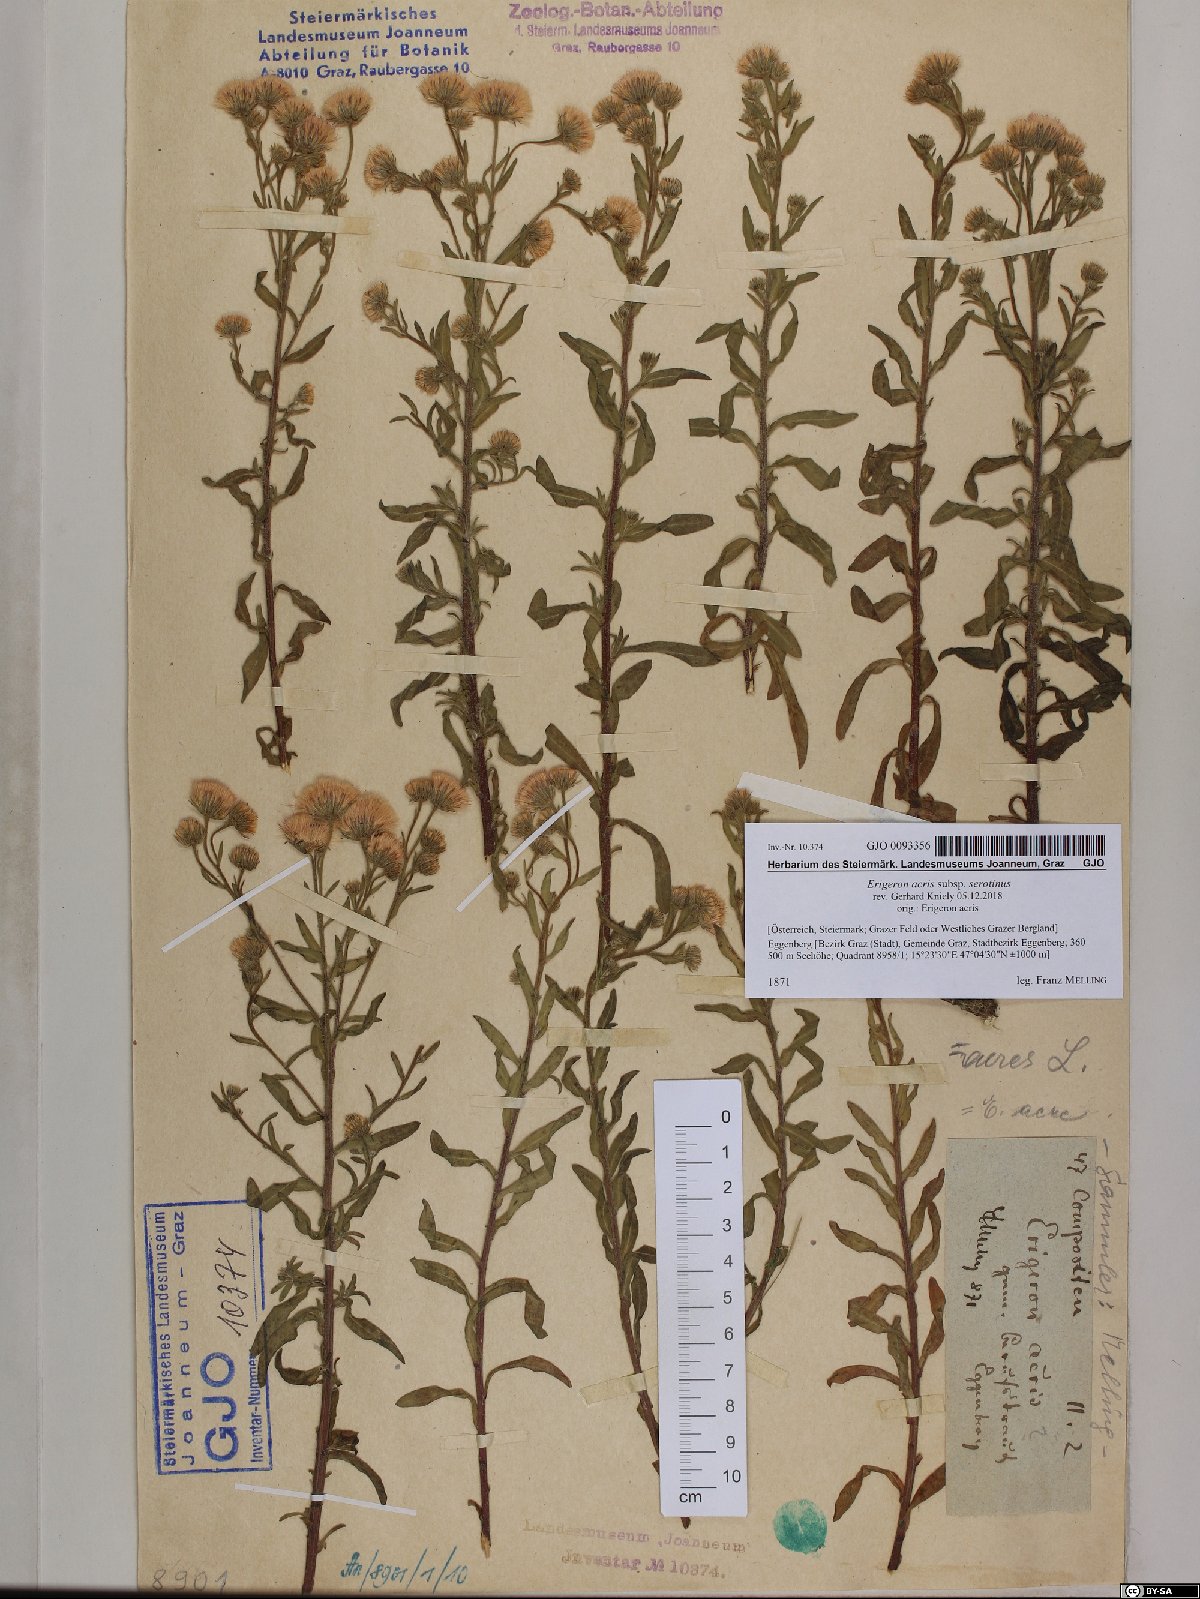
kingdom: Plantae
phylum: Tracheophyta
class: Magnoliopsida
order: Asterales
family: Asteraceae
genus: Erigeron
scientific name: Erigeron muralis
